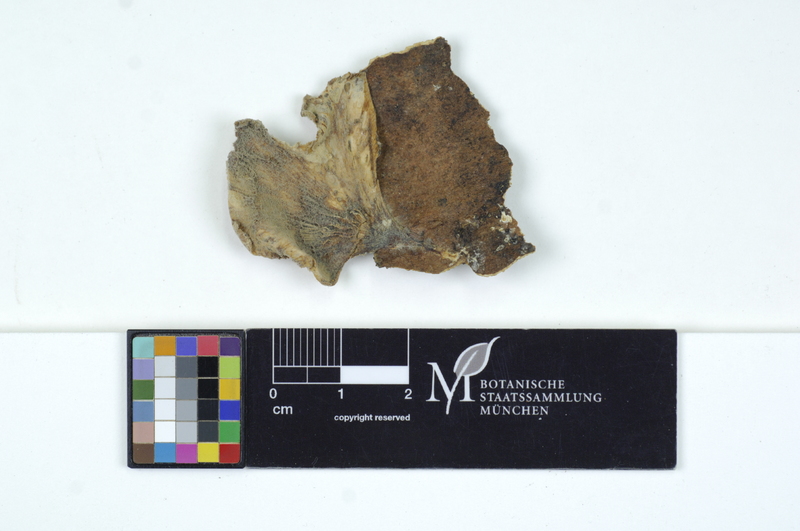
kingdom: Fungi
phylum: Basidiomycota
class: Agaricomycetes
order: Agaricales
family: Pleurotaceae
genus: Hohenbuehelia
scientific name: Hohenbuehelia atrocoerulea
